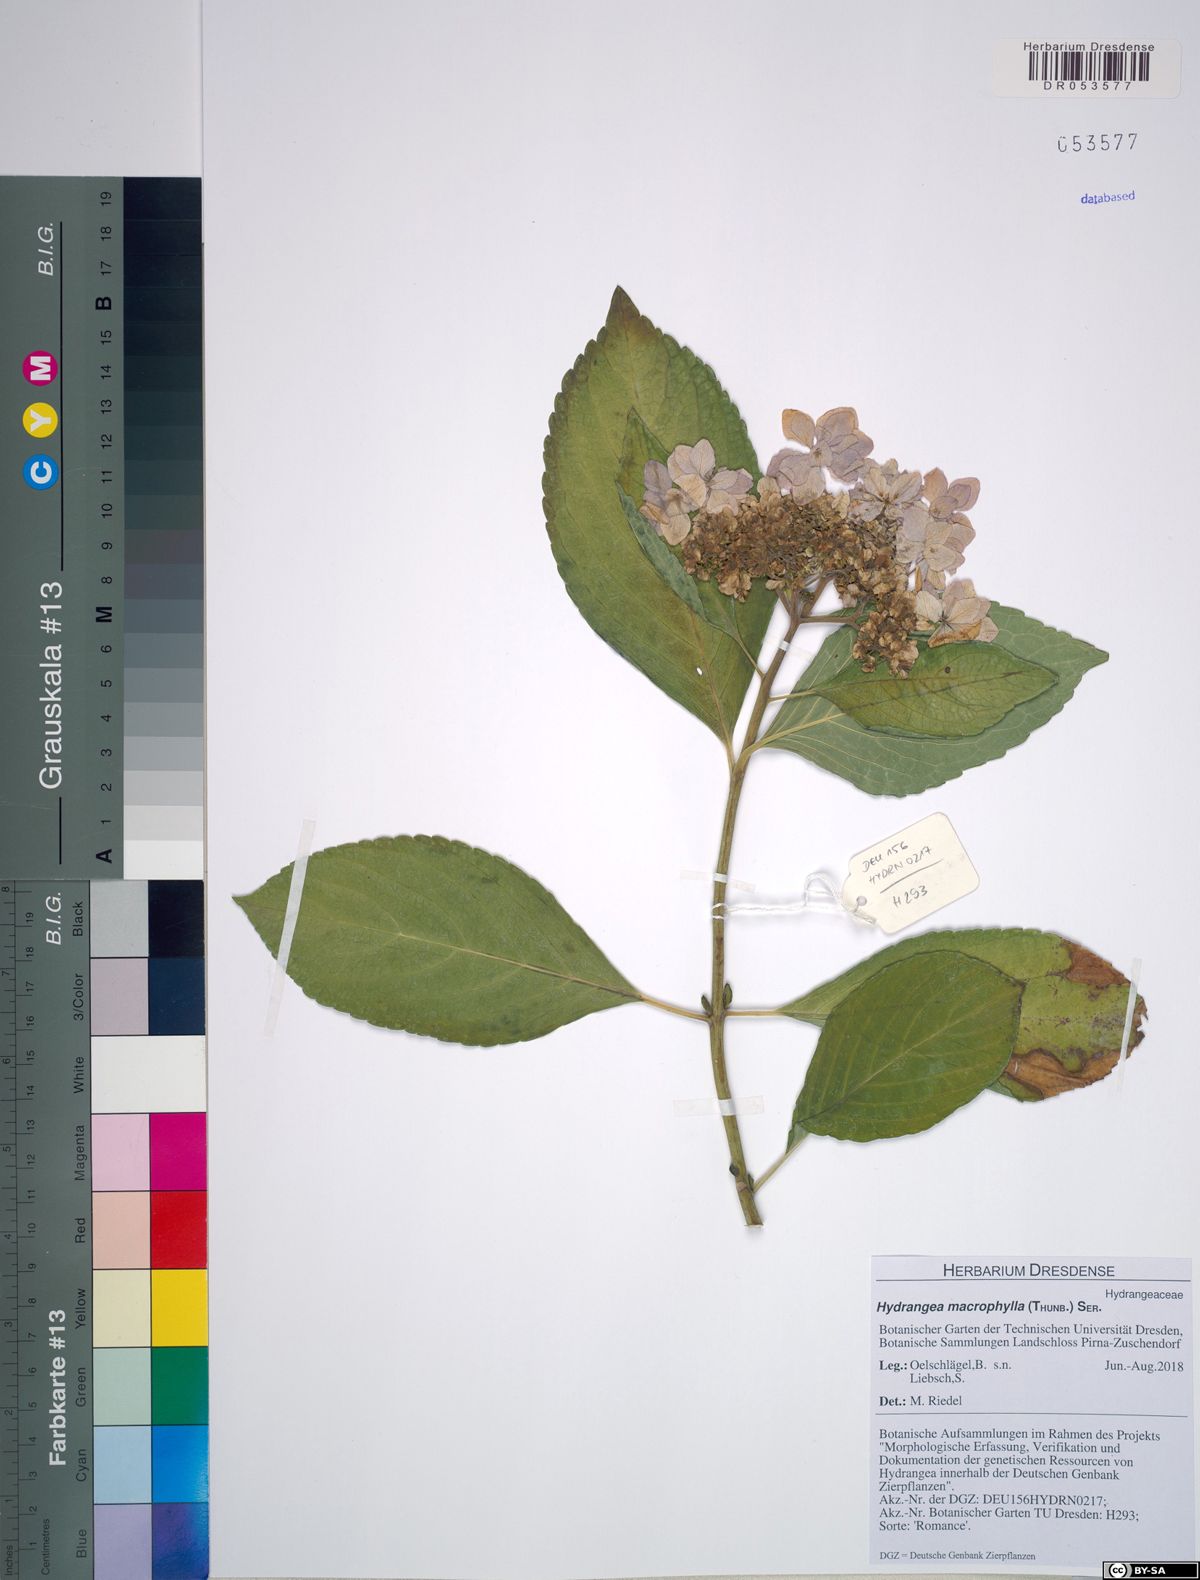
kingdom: Plantae
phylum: Tracheophyta
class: Magnoliopsida
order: Cornales
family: Hydrangeaceae
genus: Hydrangea
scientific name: Hydrangea macrophylla
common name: Hydrangea
